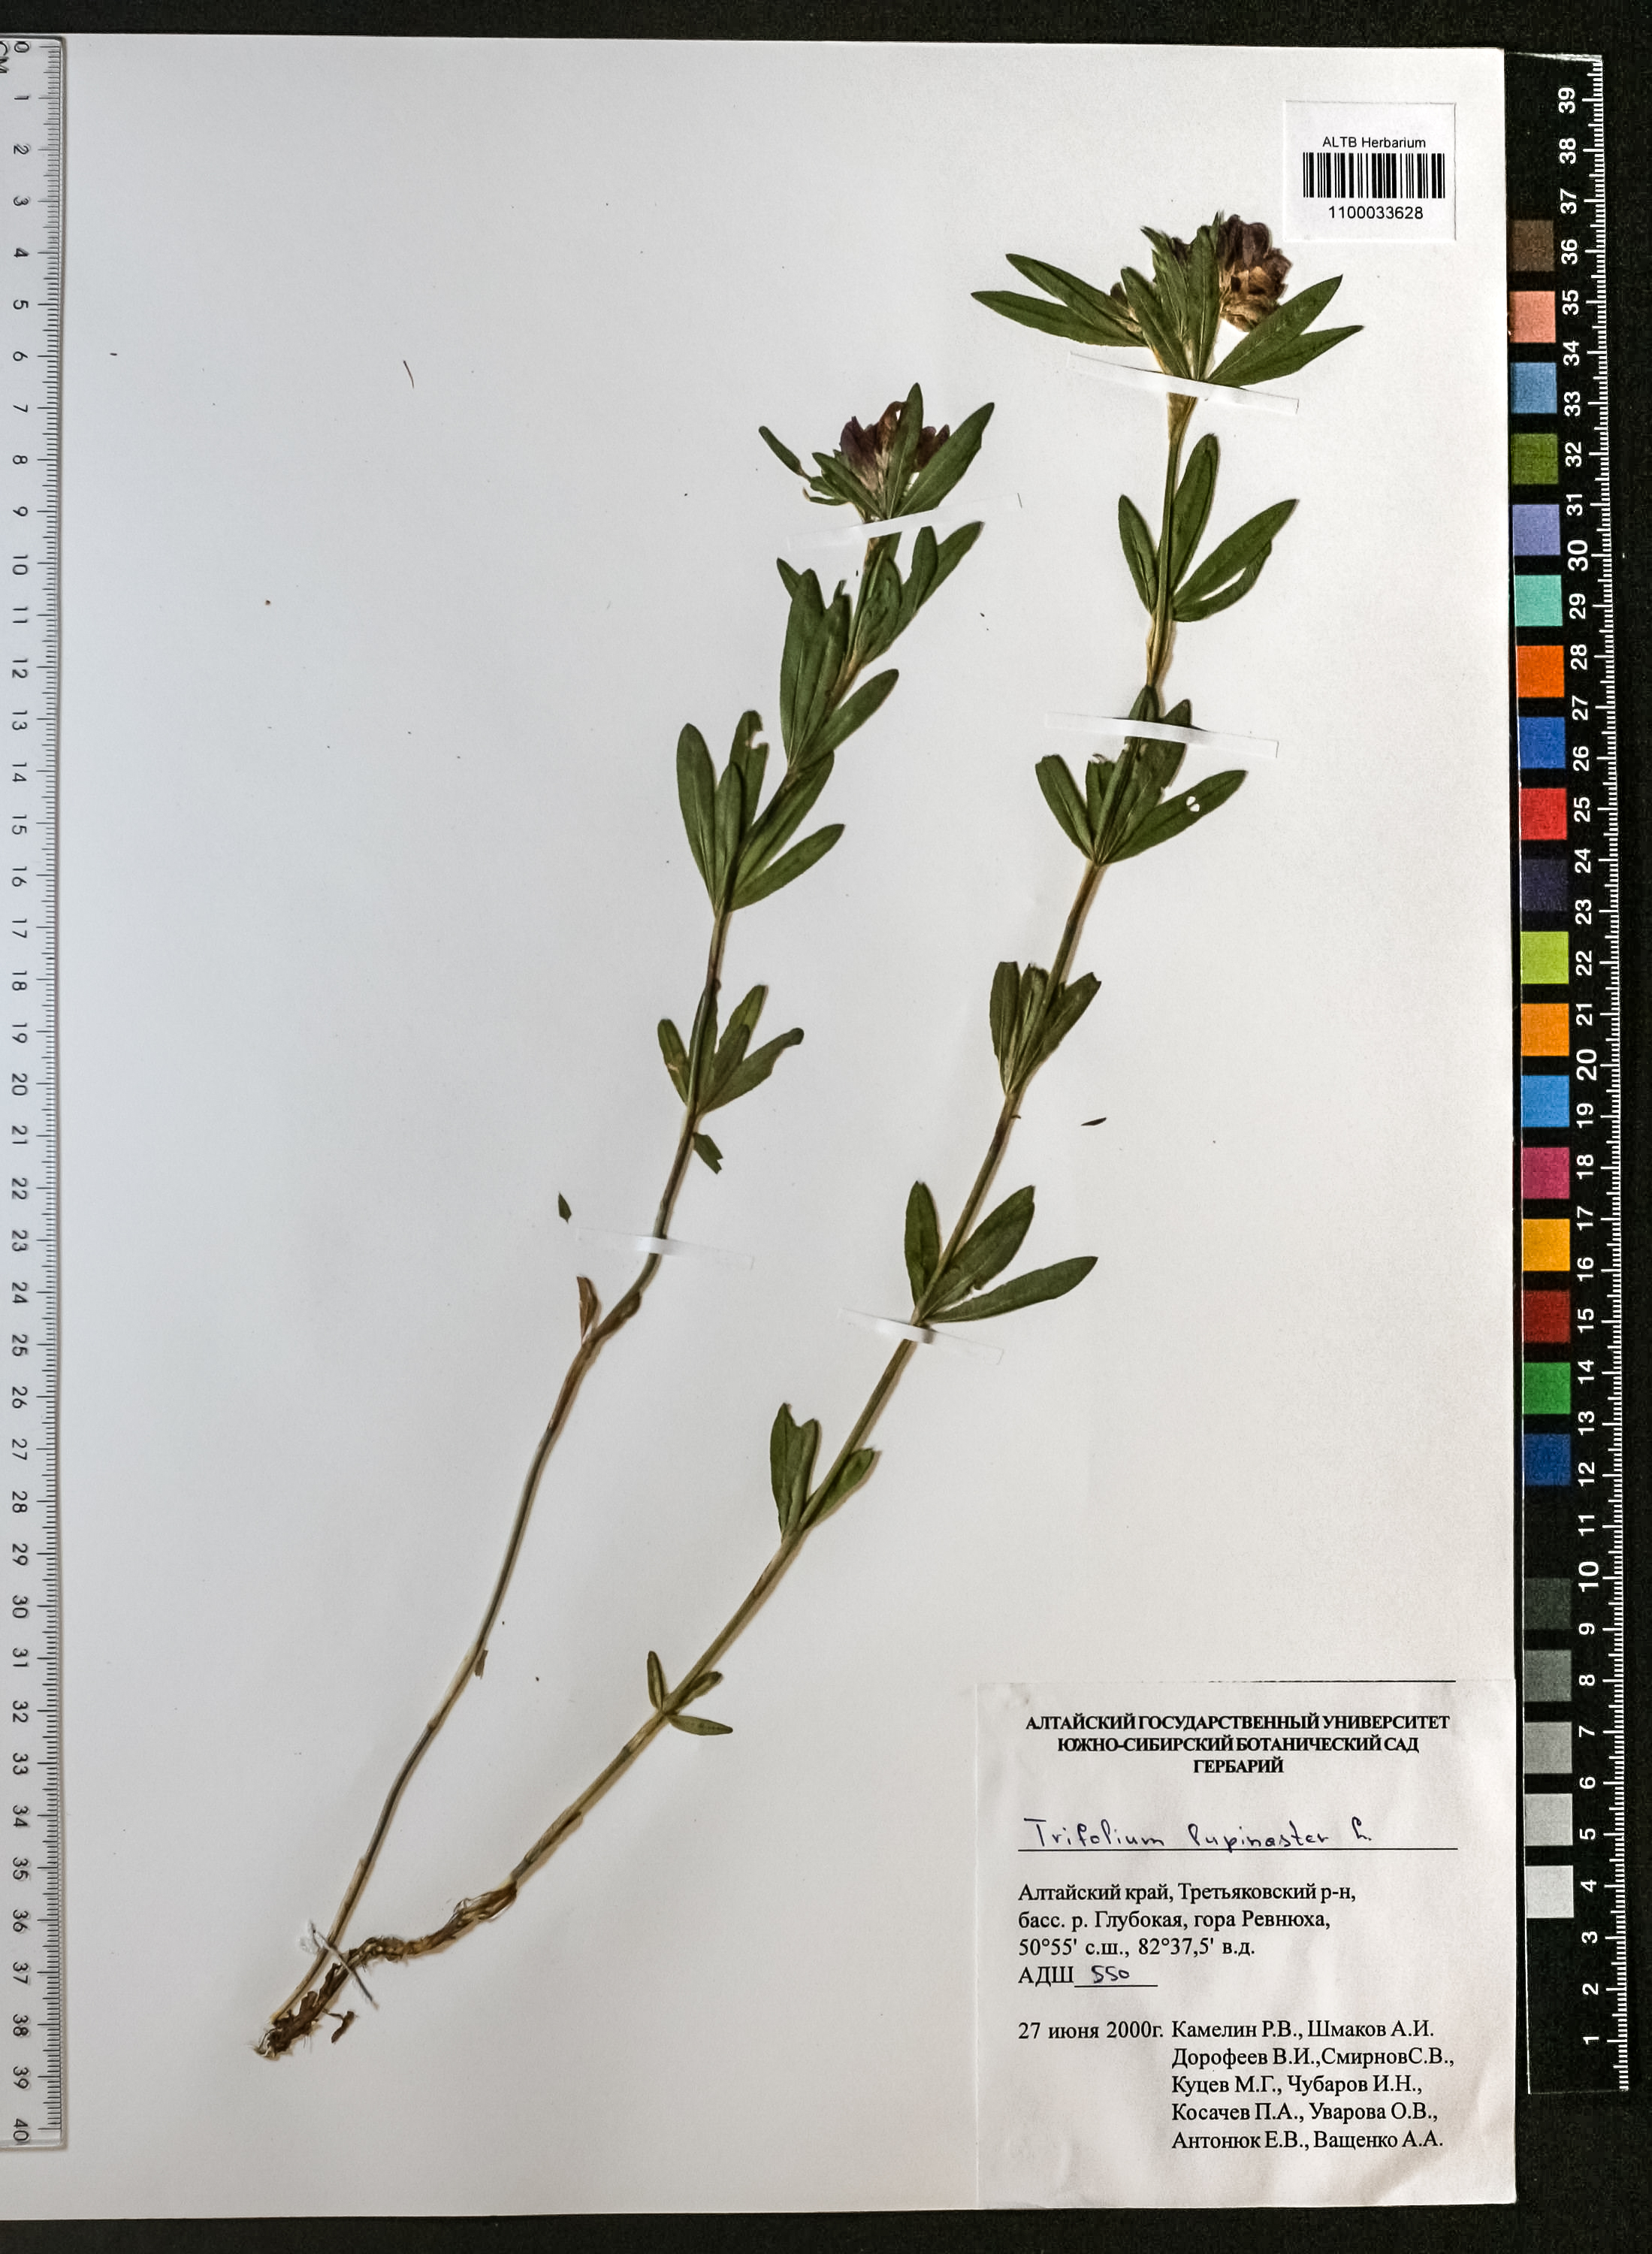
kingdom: Plantae
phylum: Tracheophyta
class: Magnoliopsida
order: Fabales
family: Fabaceae
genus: Trifolium
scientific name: Trifolium lupinaster
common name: Lupine clover
